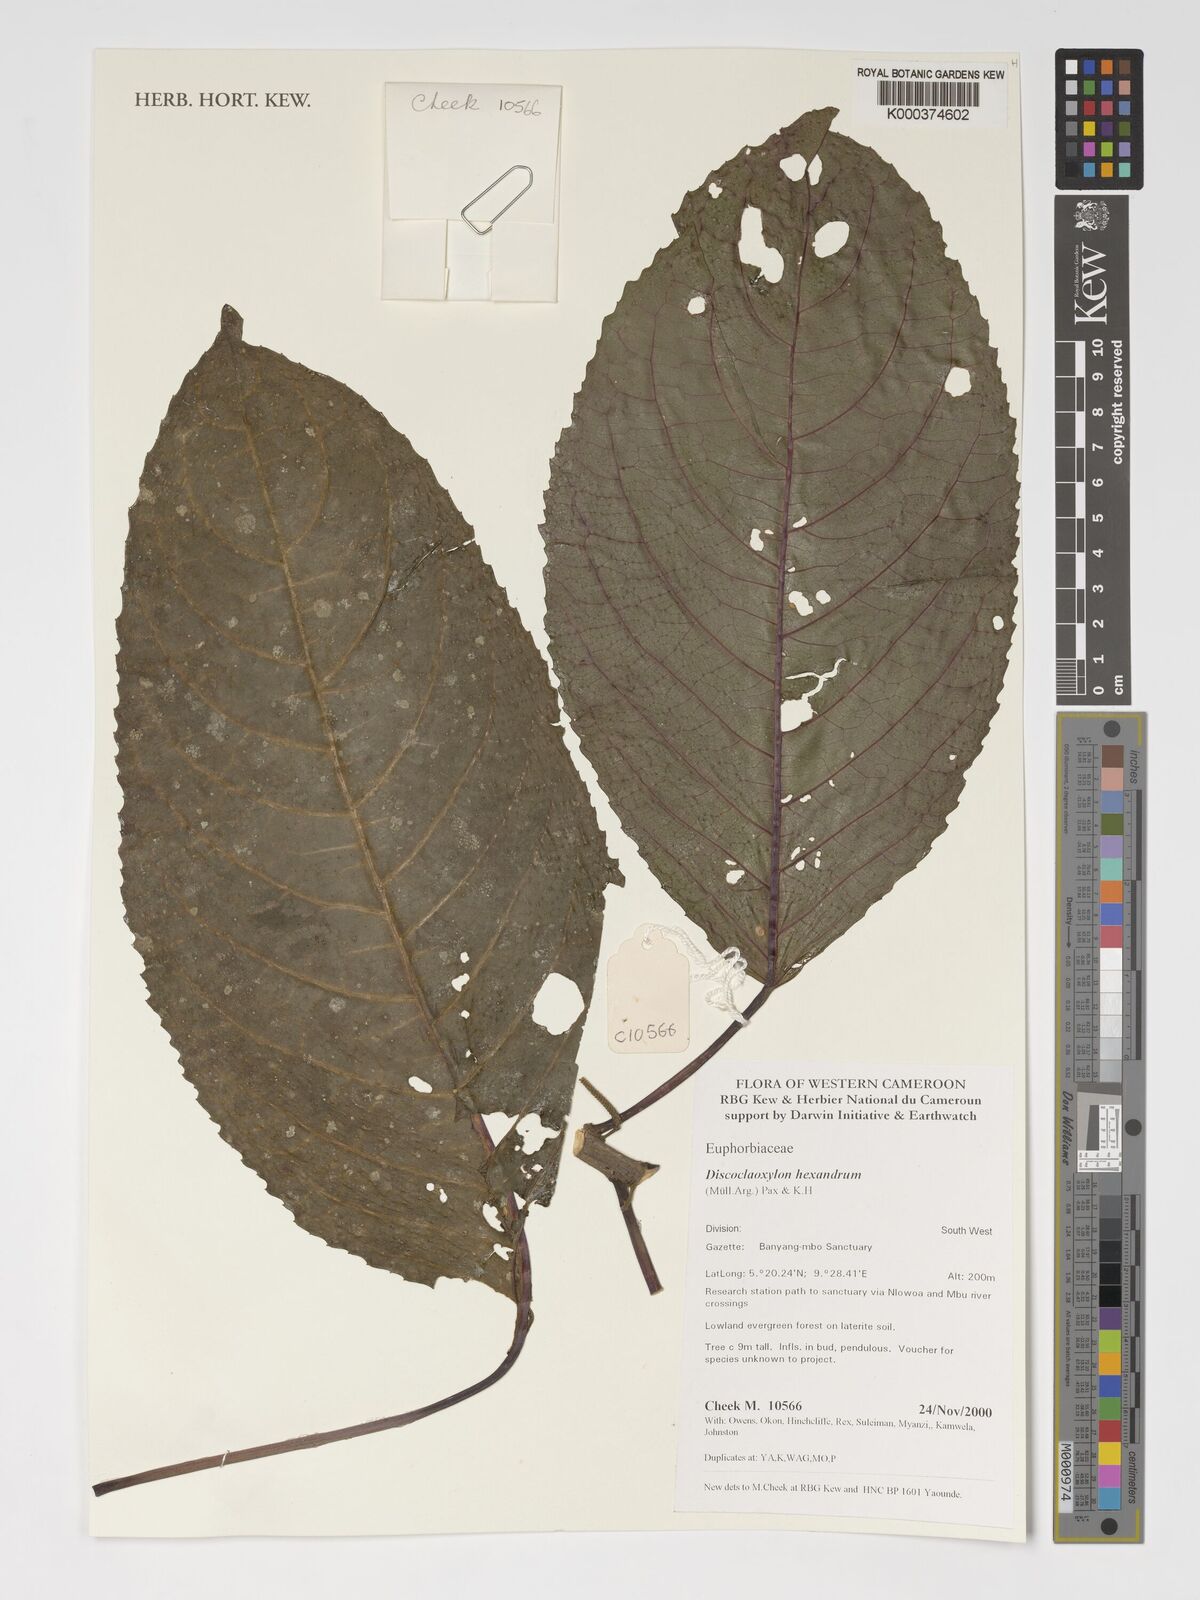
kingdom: Plantae
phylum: Tracheophyta
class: Magnoliopsida
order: Malpighiales
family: Euphorbiaceae
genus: Discoclaoxylon
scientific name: Discoclaoxylon hexandrum
